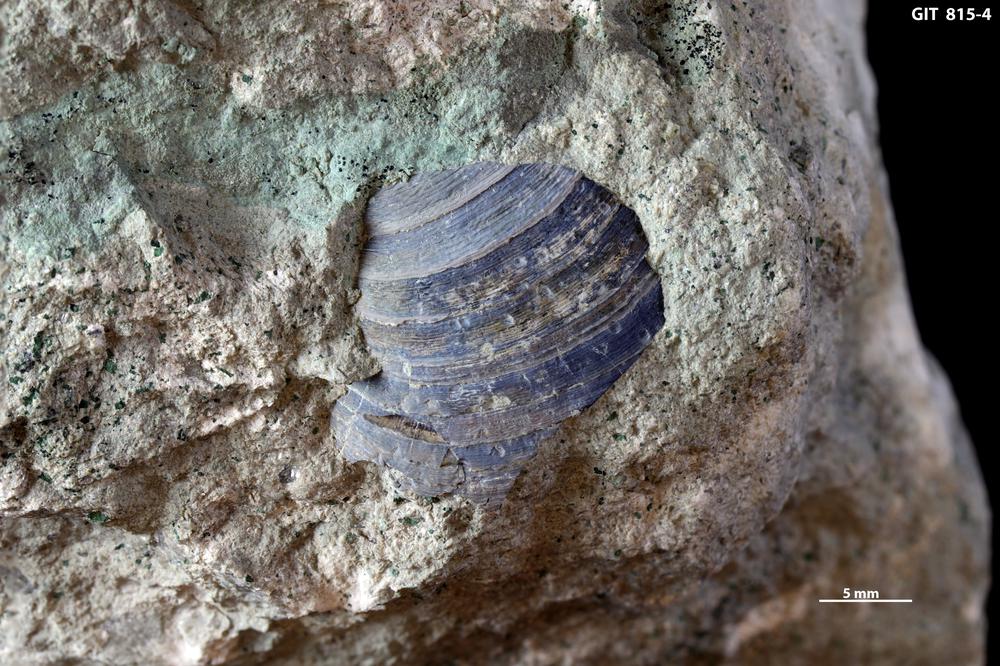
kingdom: Animalia
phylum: Mollusca
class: Monoplacophora
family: Metoptomatidae
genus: Metoptoma
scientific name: Metoptoma
